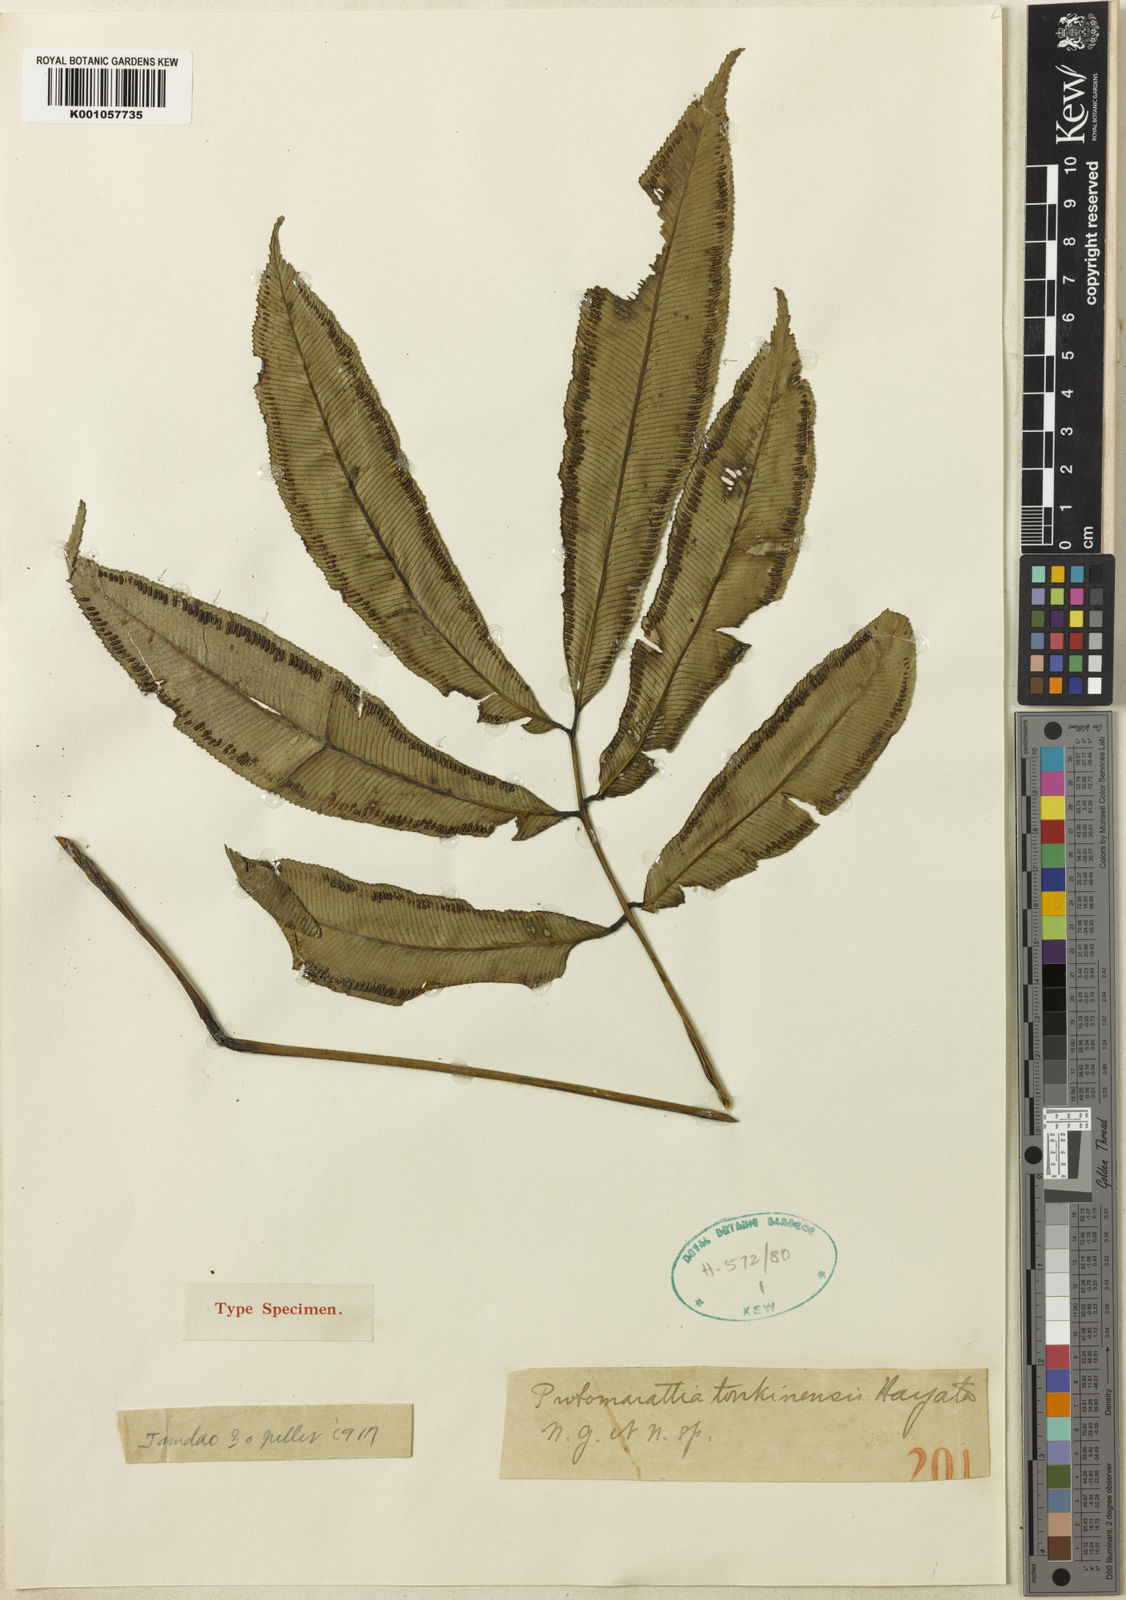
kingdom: Plantae
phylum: Tracheophyta
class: Polypodiopsida
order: Marattiales
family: Marattiaceae
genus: Angiopteris
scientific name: Angiopteris tonkinensis
